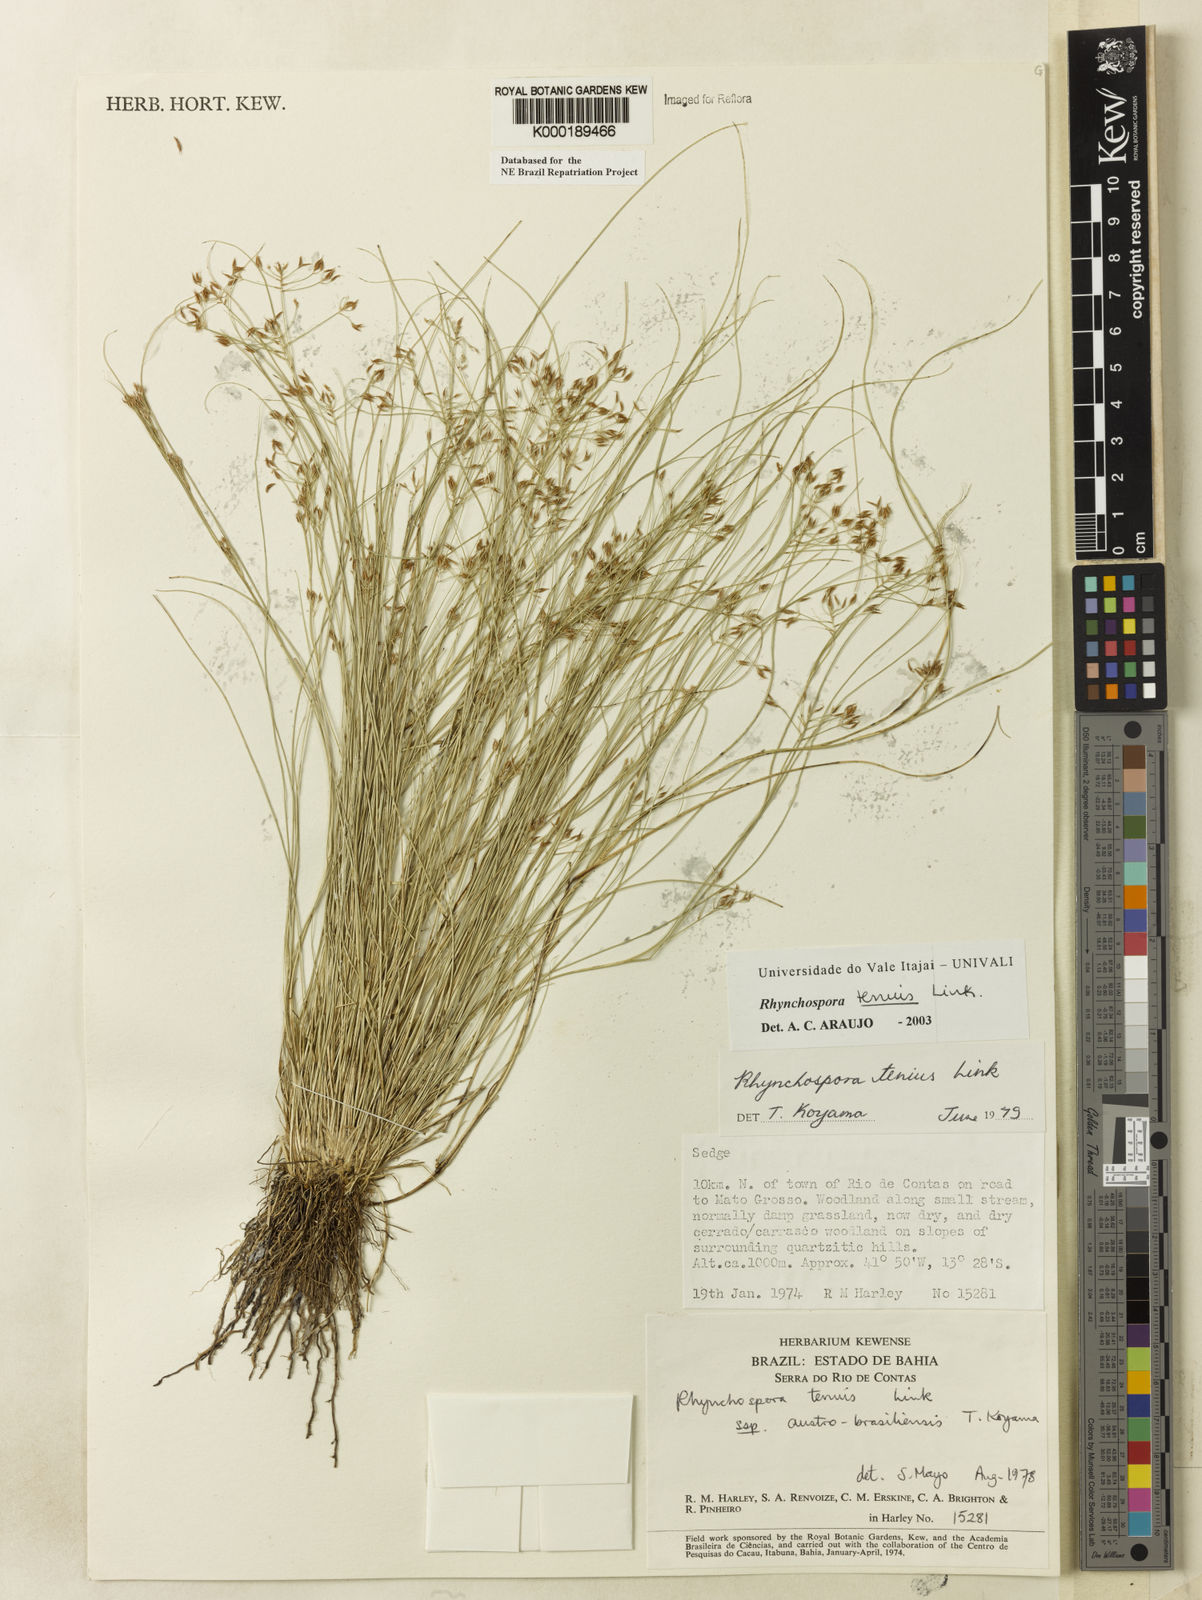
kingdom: Plantae
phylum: Tracheophyta
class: Liliopsida
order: Poales
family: Cyperaceae
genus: Rhynchospora
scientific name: Rhynchospora tenuis
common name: Quill beaksedge
